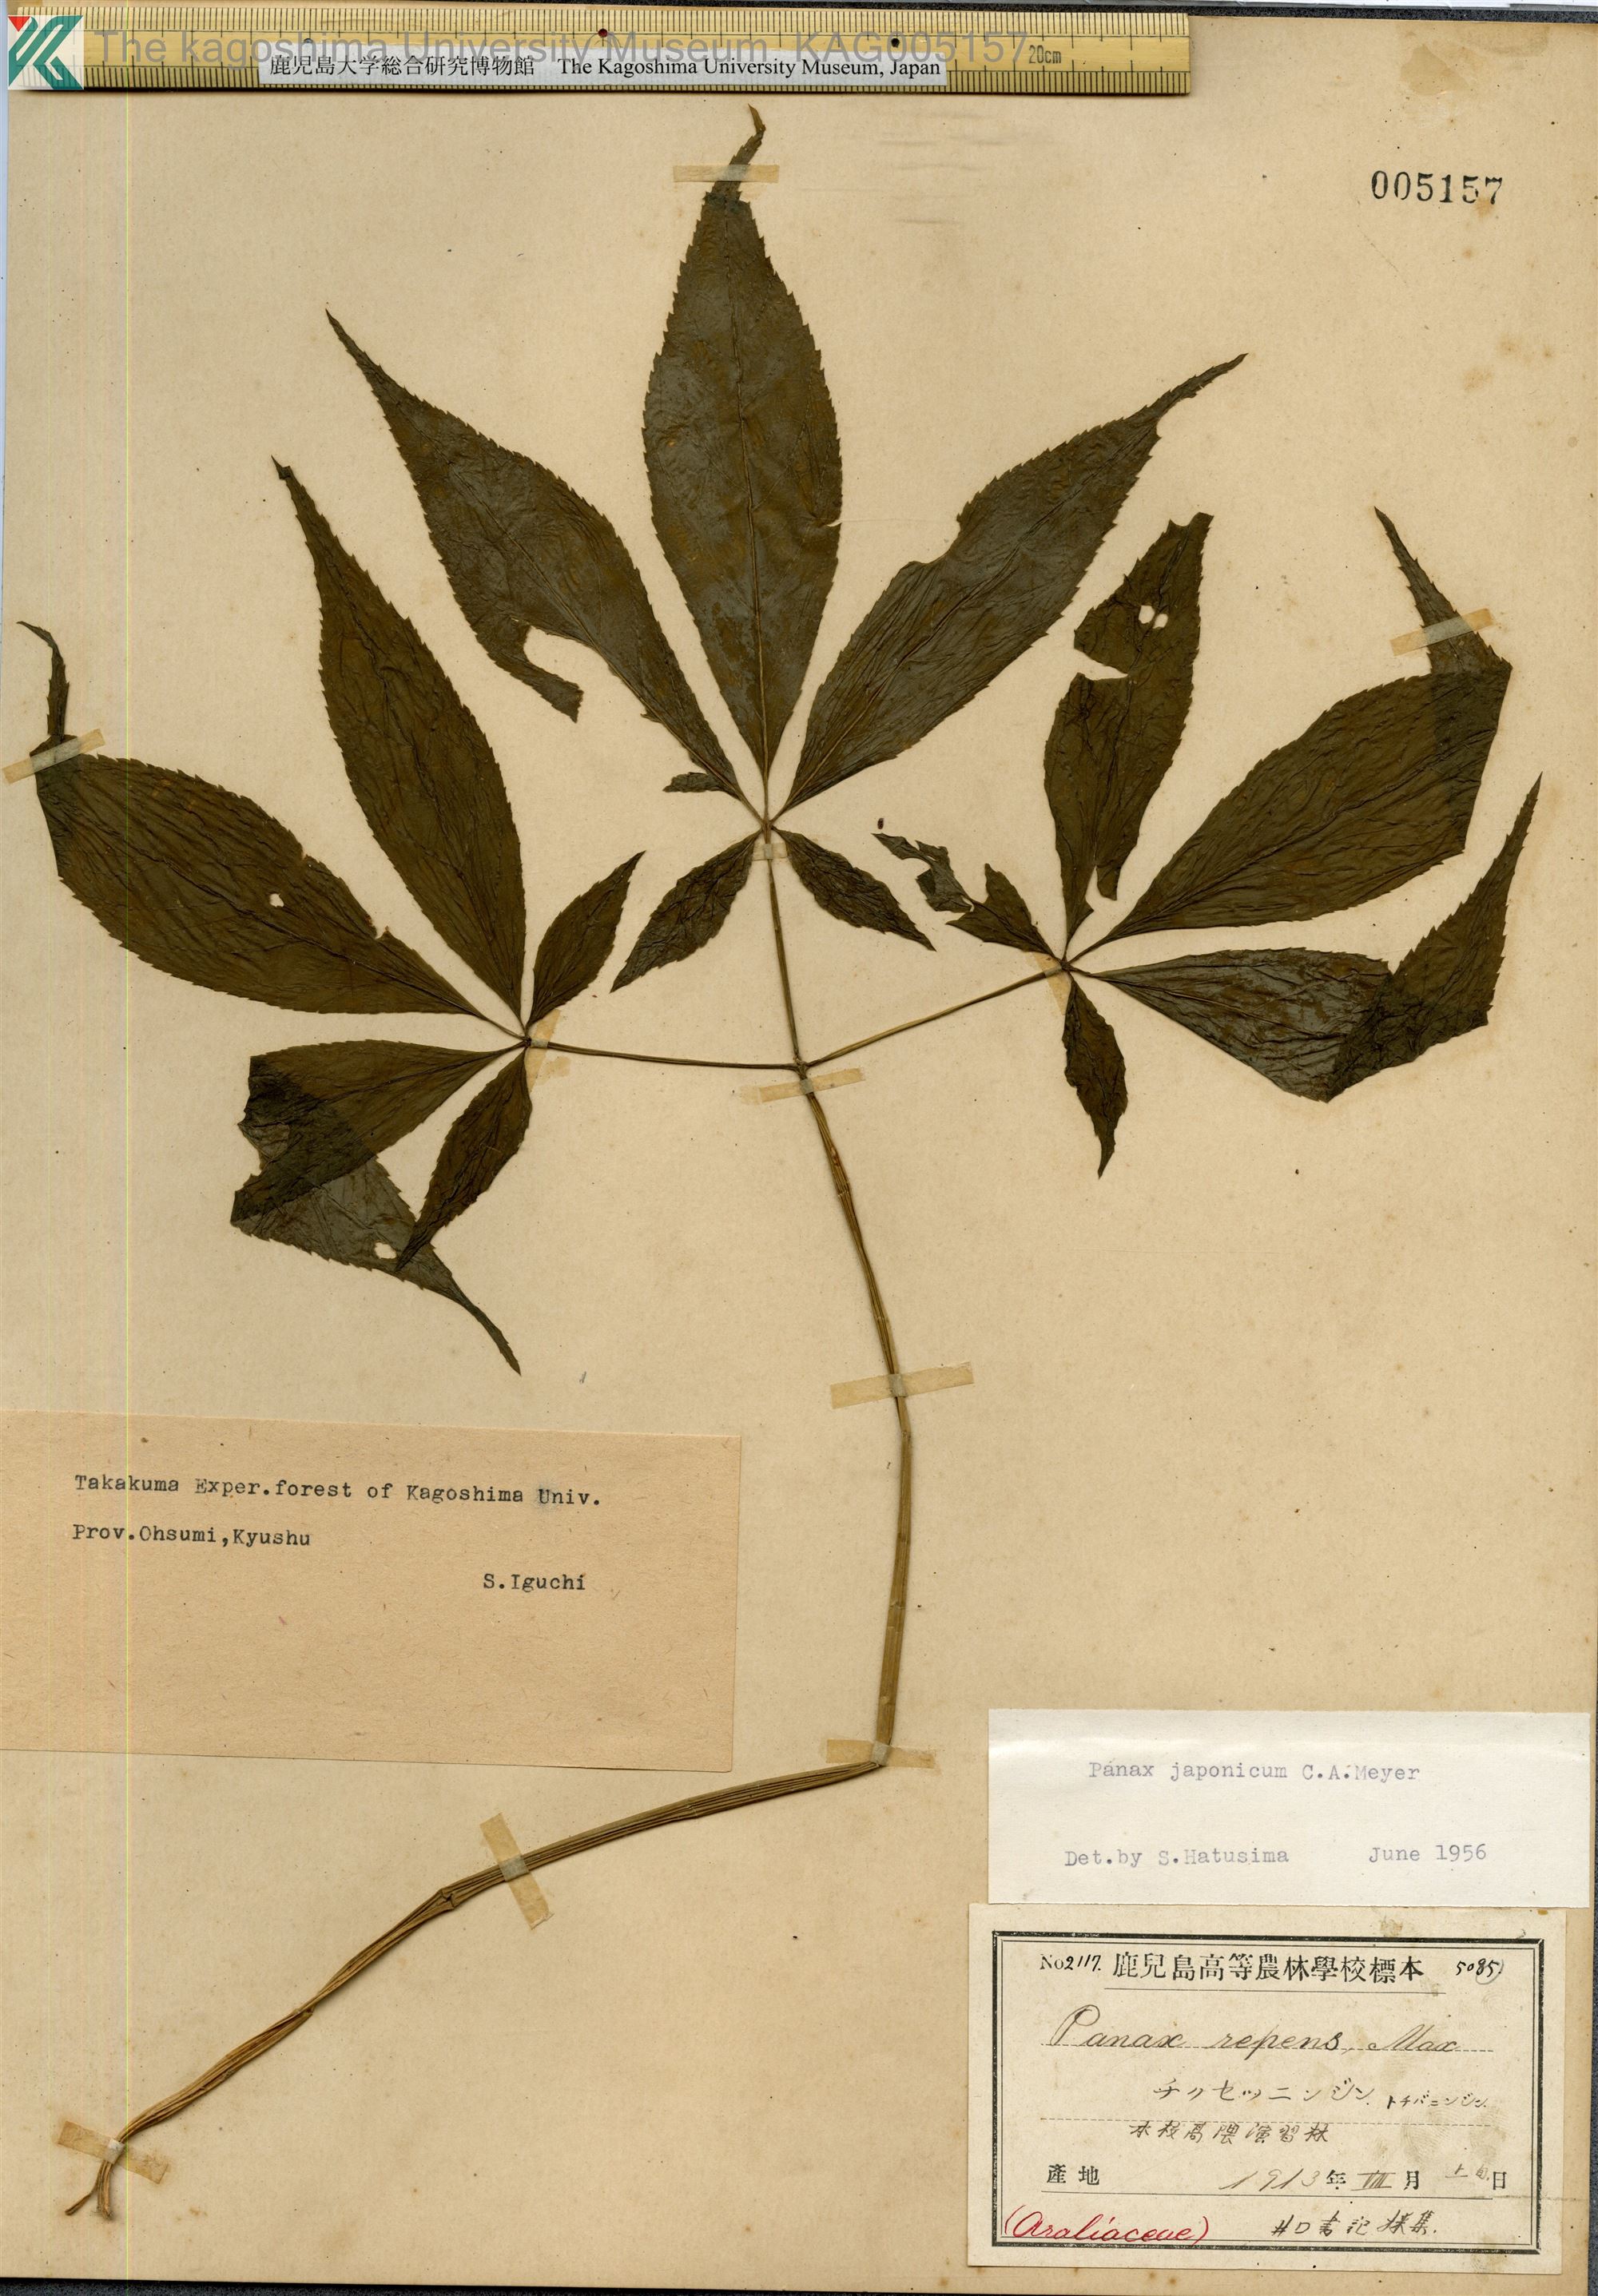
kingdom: Plantae
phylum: Tracheophyta
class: Magnoliopsida
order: Apiales
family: Araliaceae
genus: Panax
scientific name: Panax japonicus
